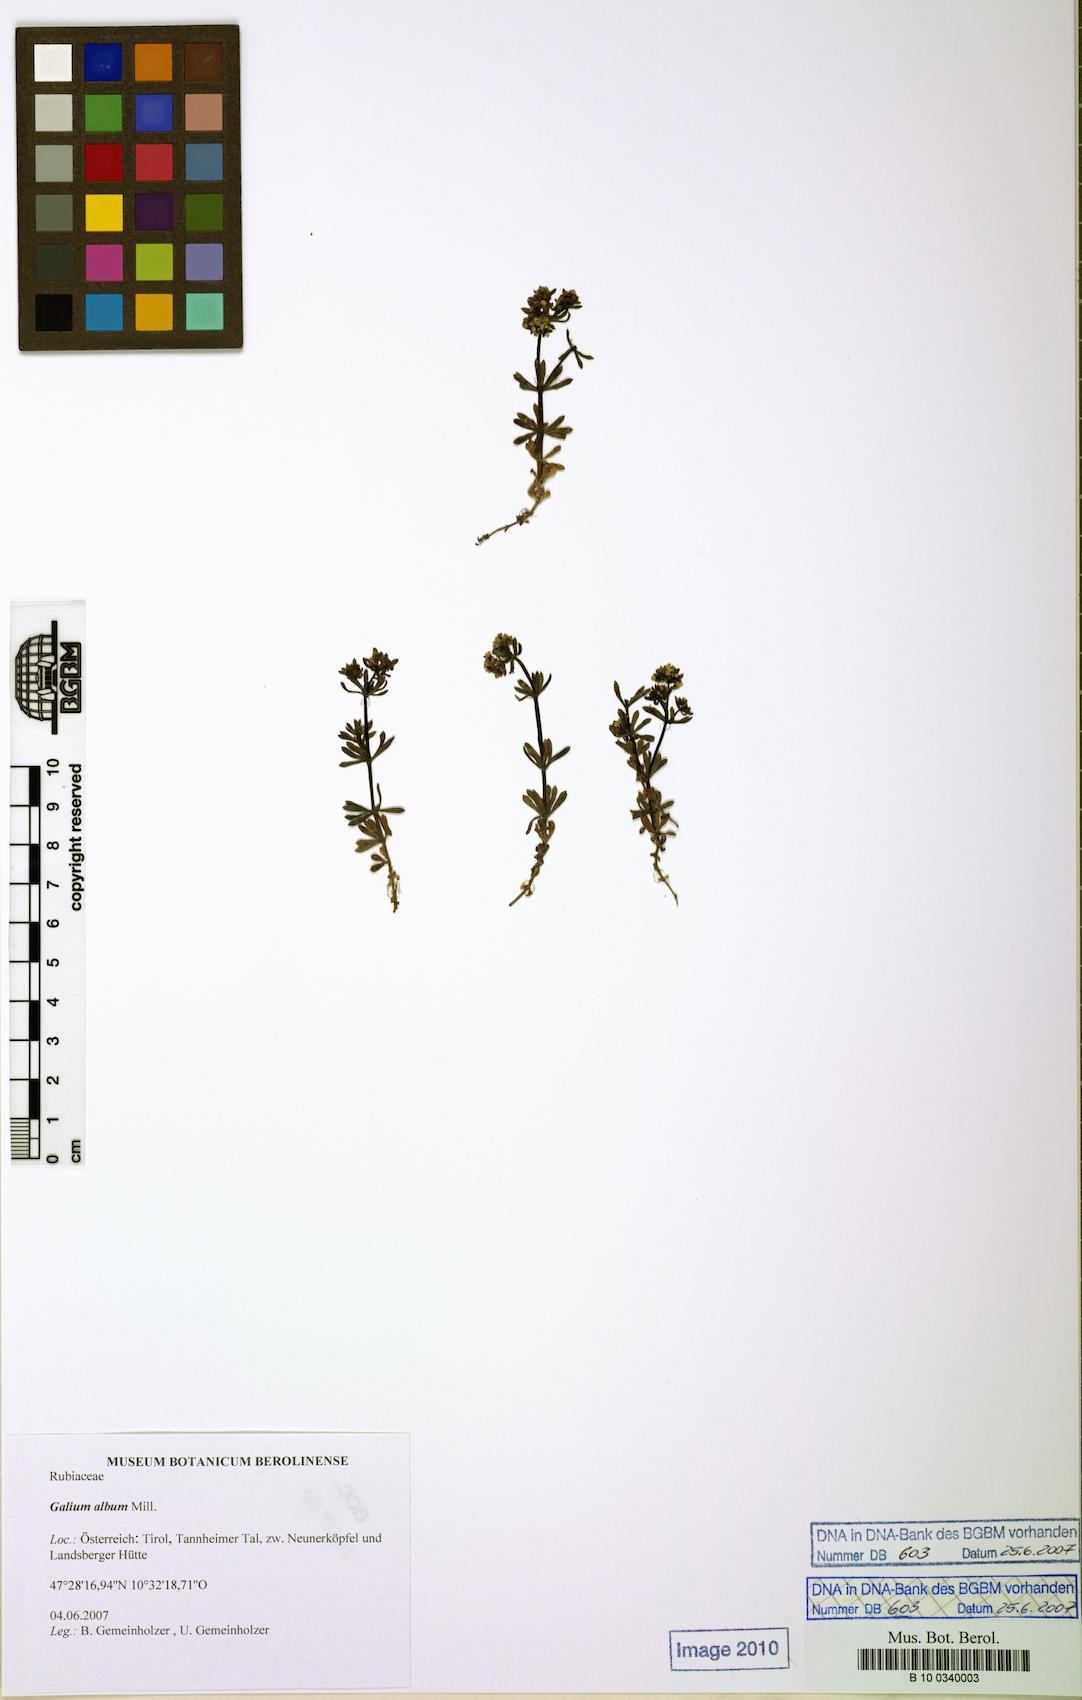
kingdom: Plantae
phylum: Tracheophyta
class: Magnoliopsida
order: Gentianales
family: Rubiaceae
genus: Galium
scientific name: Galium album
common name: White bedstraw
